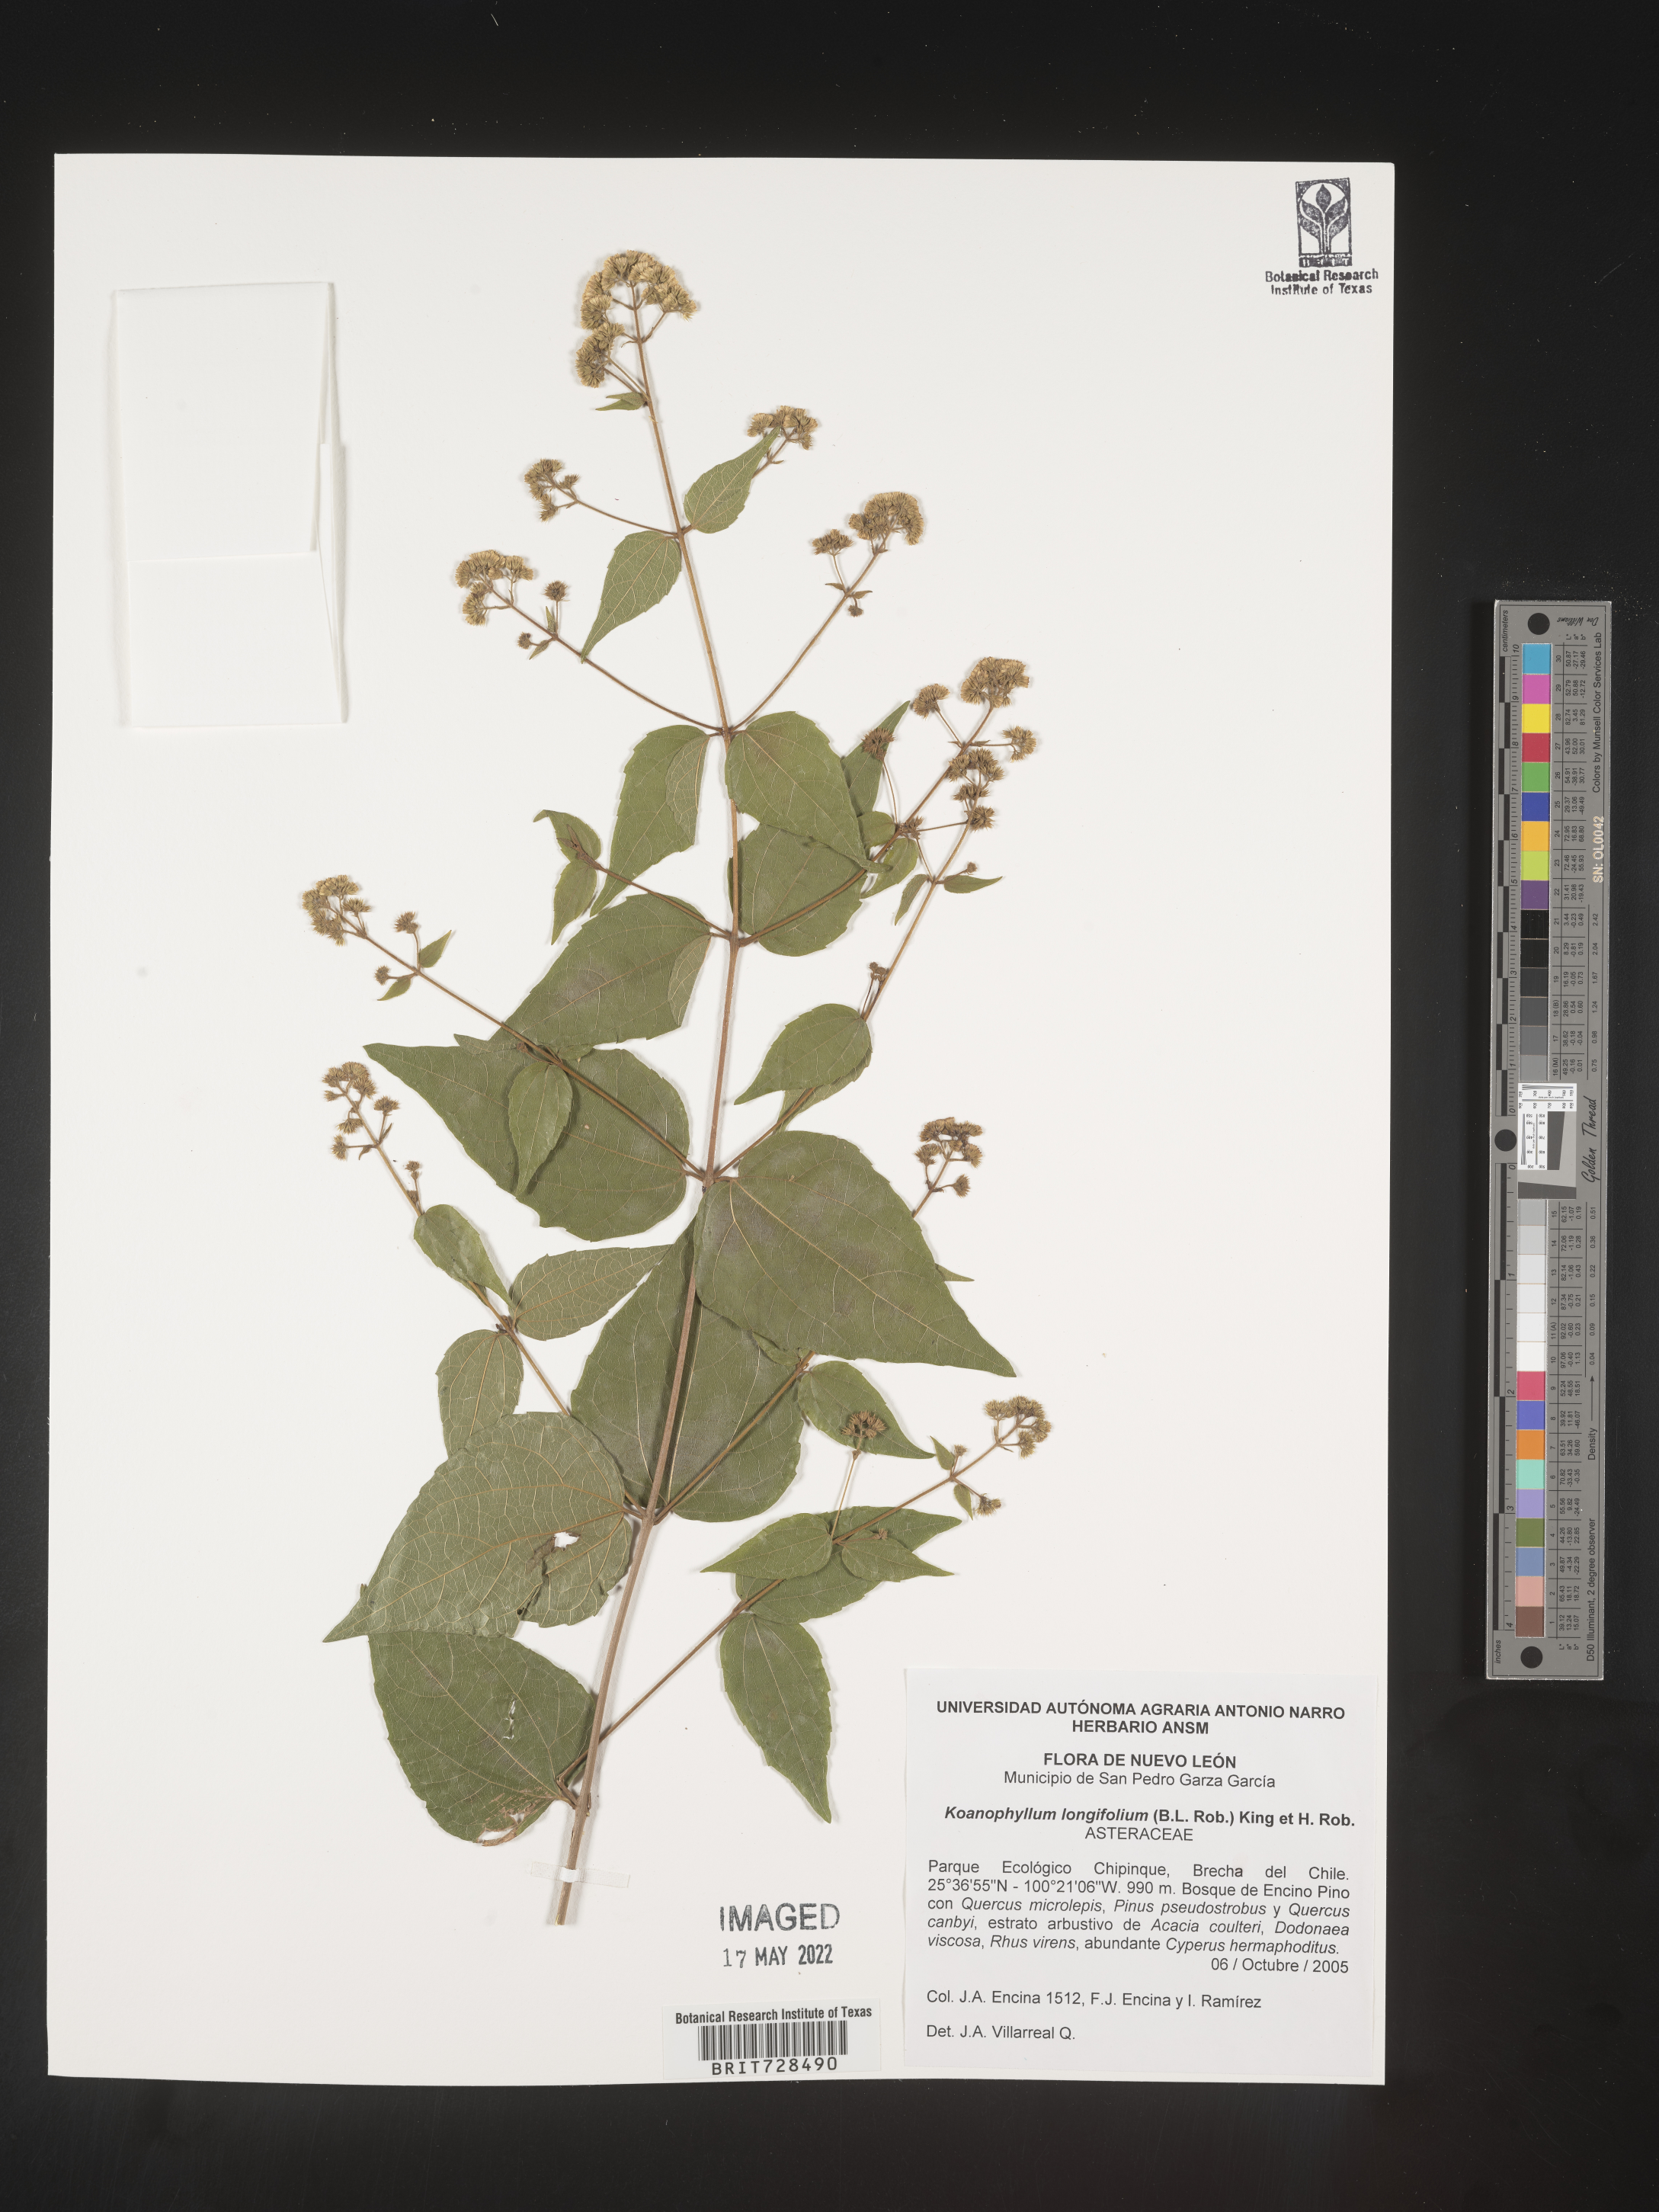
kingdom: Plantae
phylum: Tracheophyta
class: Magnoliopsida
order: Asterales
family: Asteraceae
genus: Koanophyllon
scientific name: Koanophyllon
